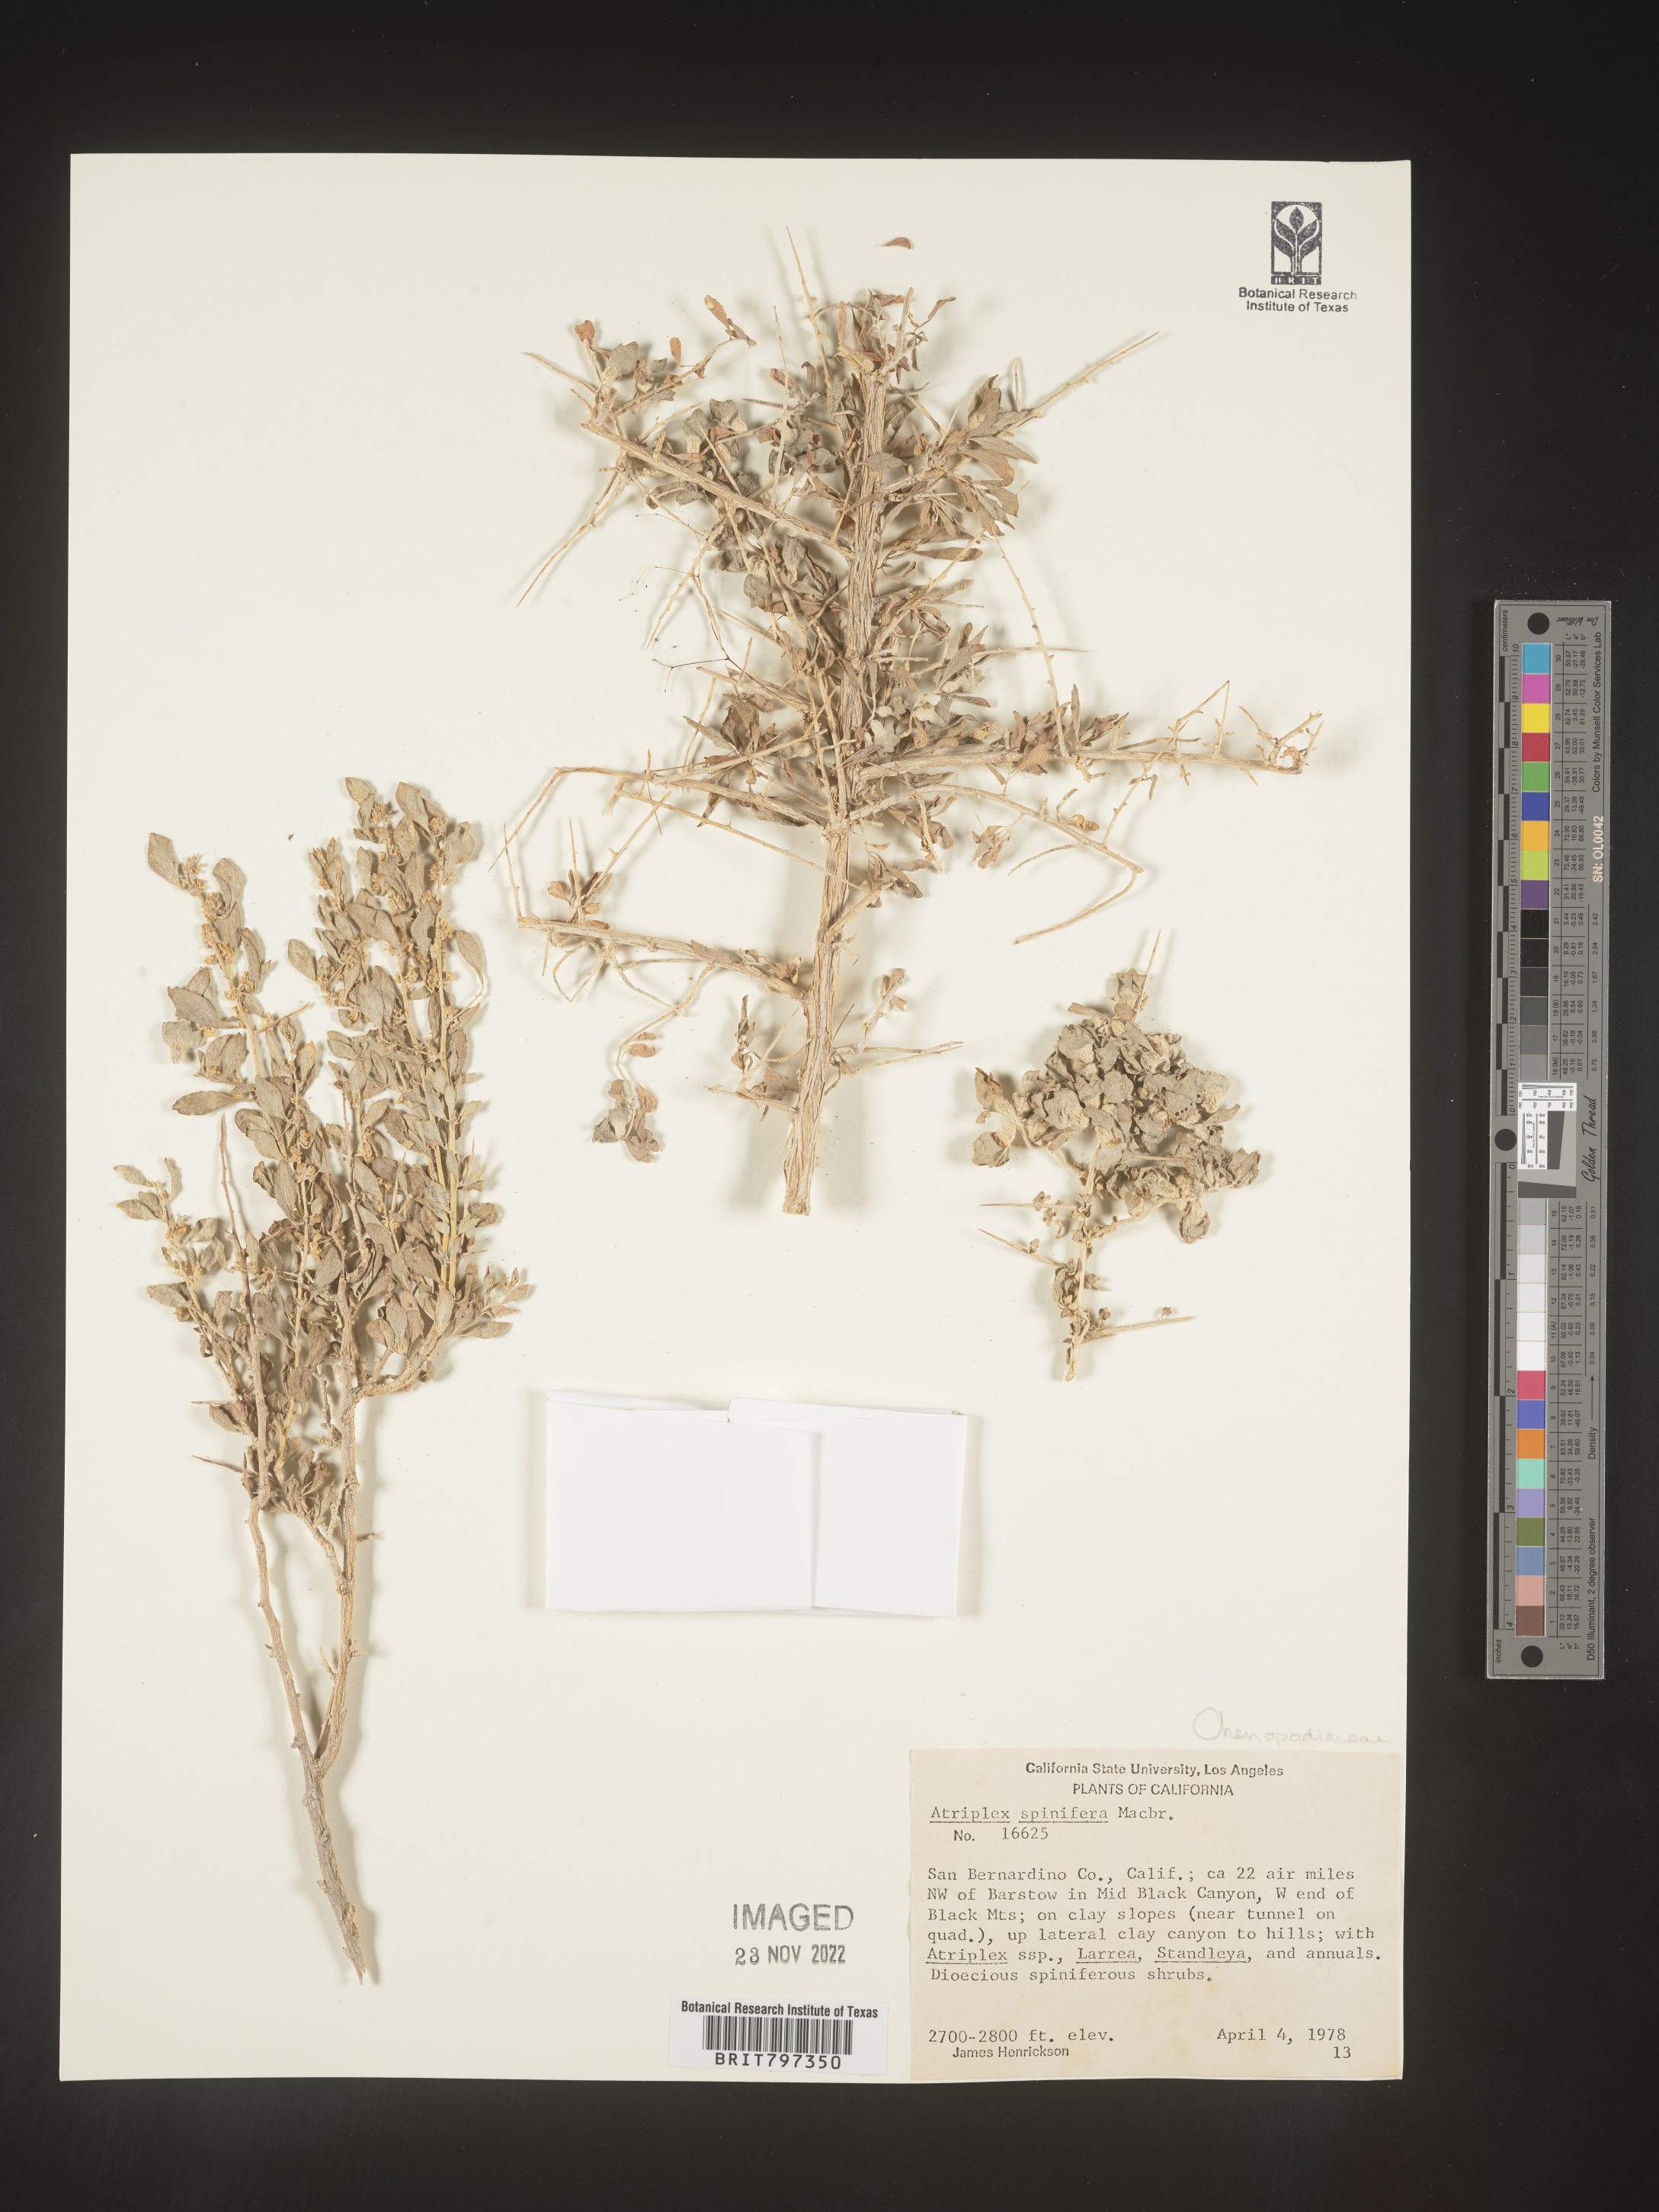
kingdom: Plantae
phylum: Tracheophyta
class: Magnoliopsida
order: Caryophyllales
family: Amaranthaceae
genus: Atriplex
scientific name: Atriplex
